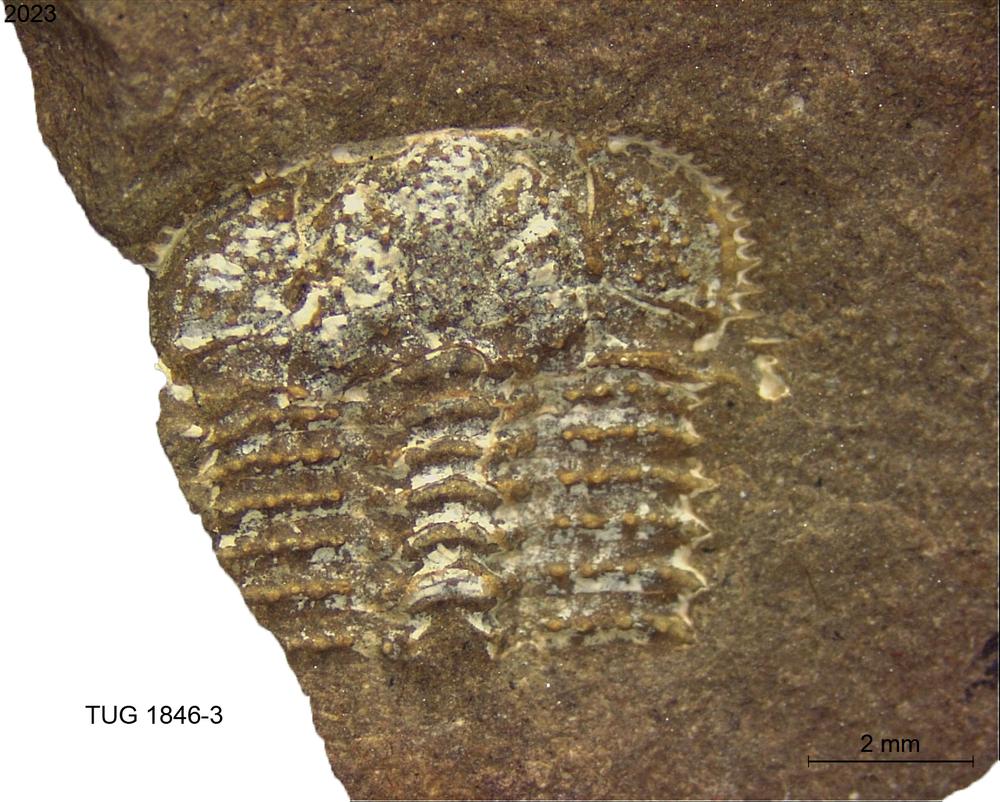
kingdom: Animalia
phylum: Arthropoda
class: Trilobita
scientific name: Trilobita
